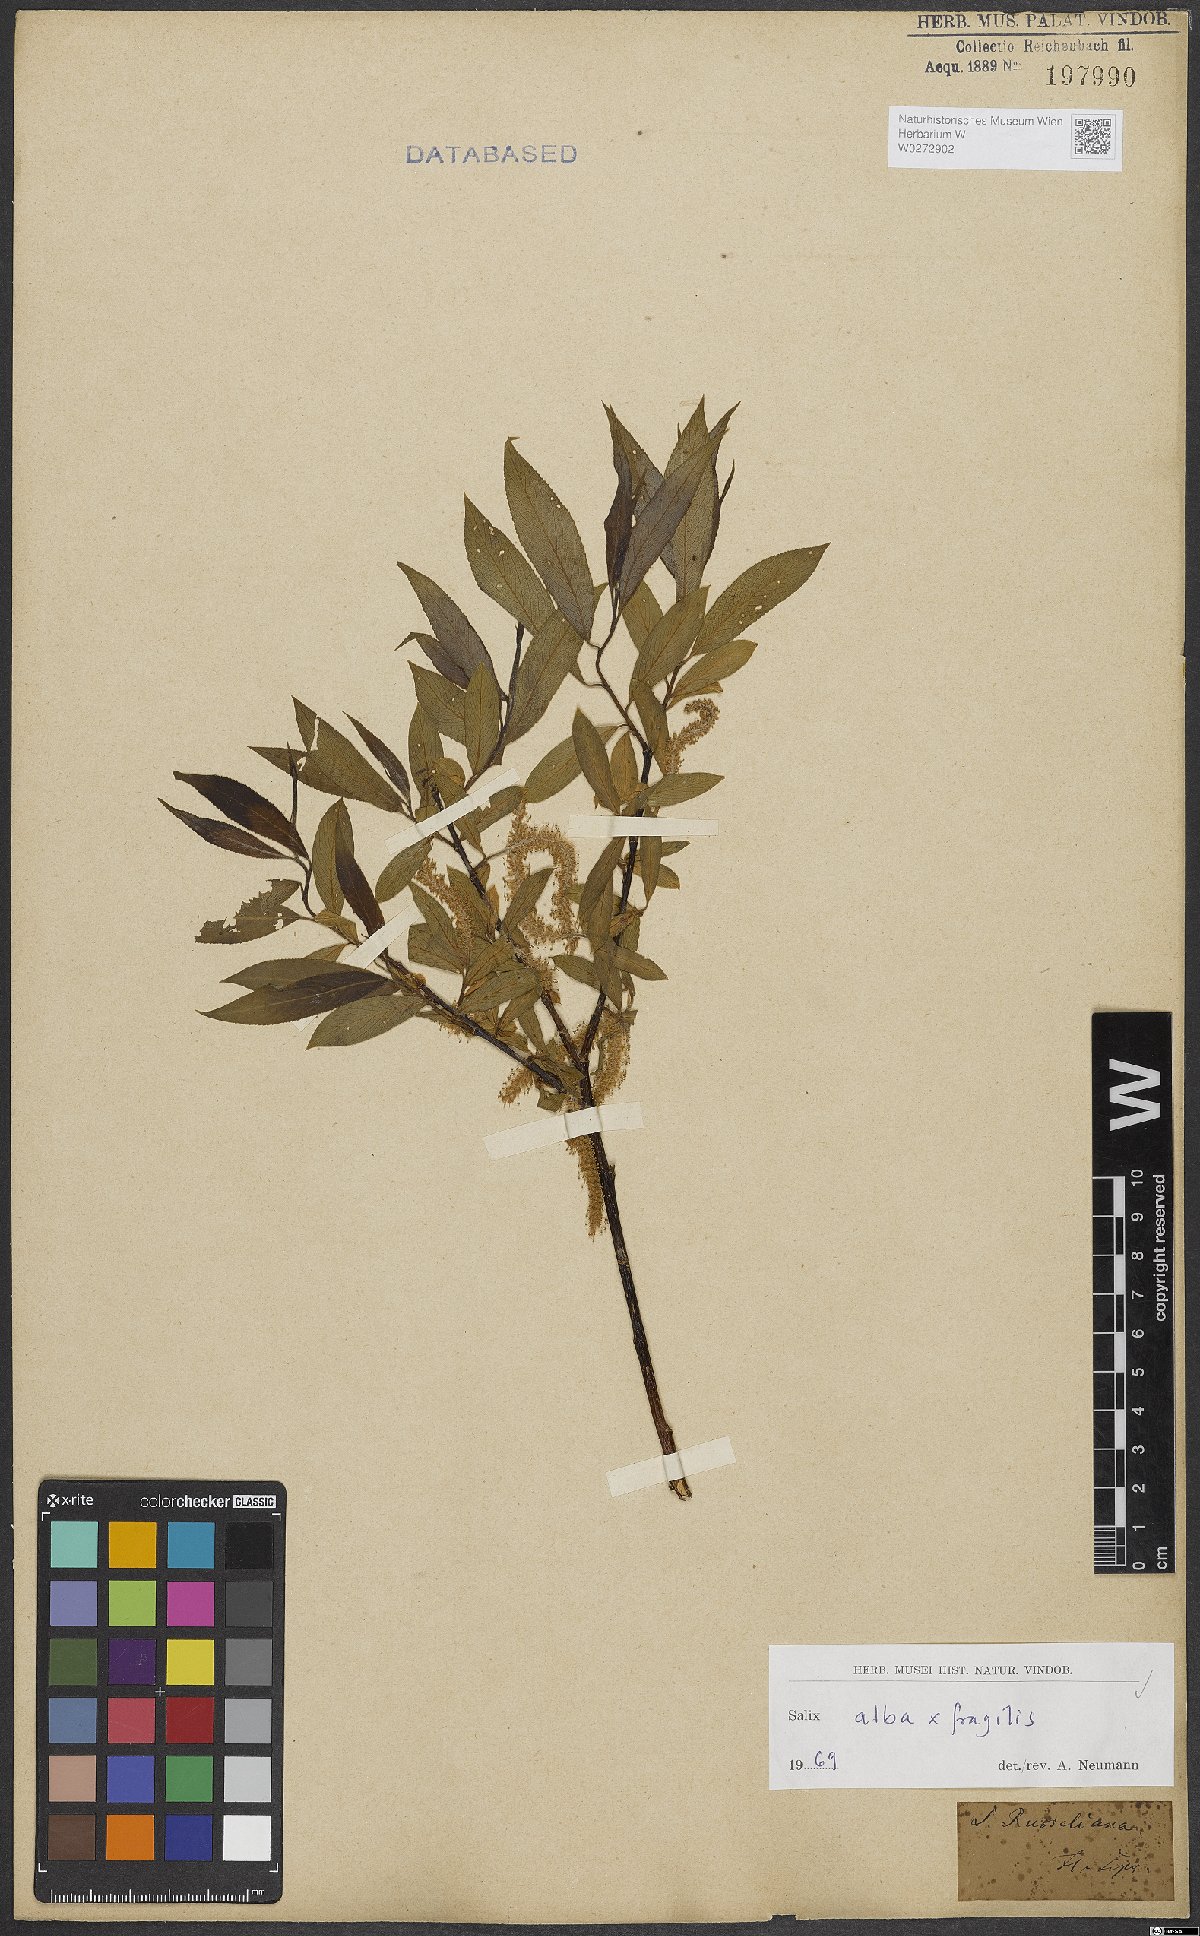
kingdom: Plantae
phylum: Tracheophyta
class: Magnoliopsida
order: Malpighiales
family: Salicaceae
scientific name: Salicaceae
